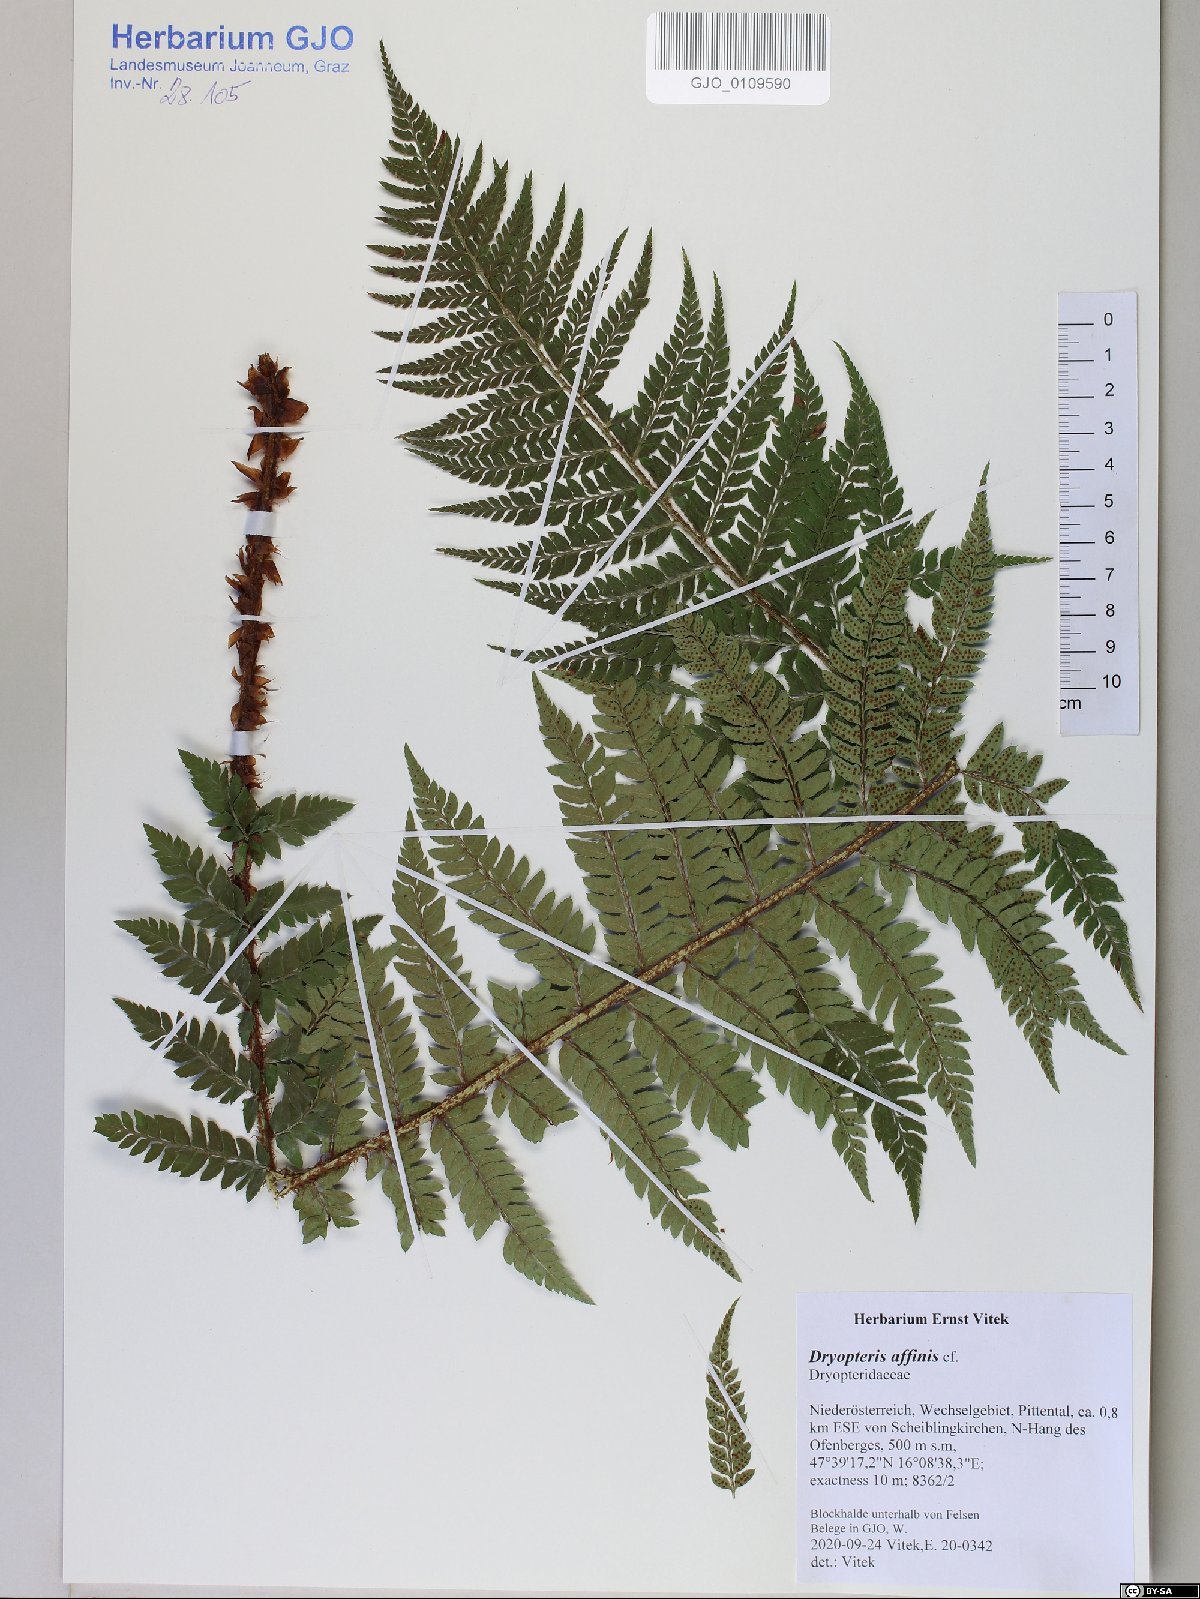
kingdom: Plantae
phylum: Tracheophyta
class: Polypodiopsida
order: Polypodiales
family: Dryopteridaceae
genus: Dryopteris
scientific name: Dryopteris affinis
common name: Scaly male fern
